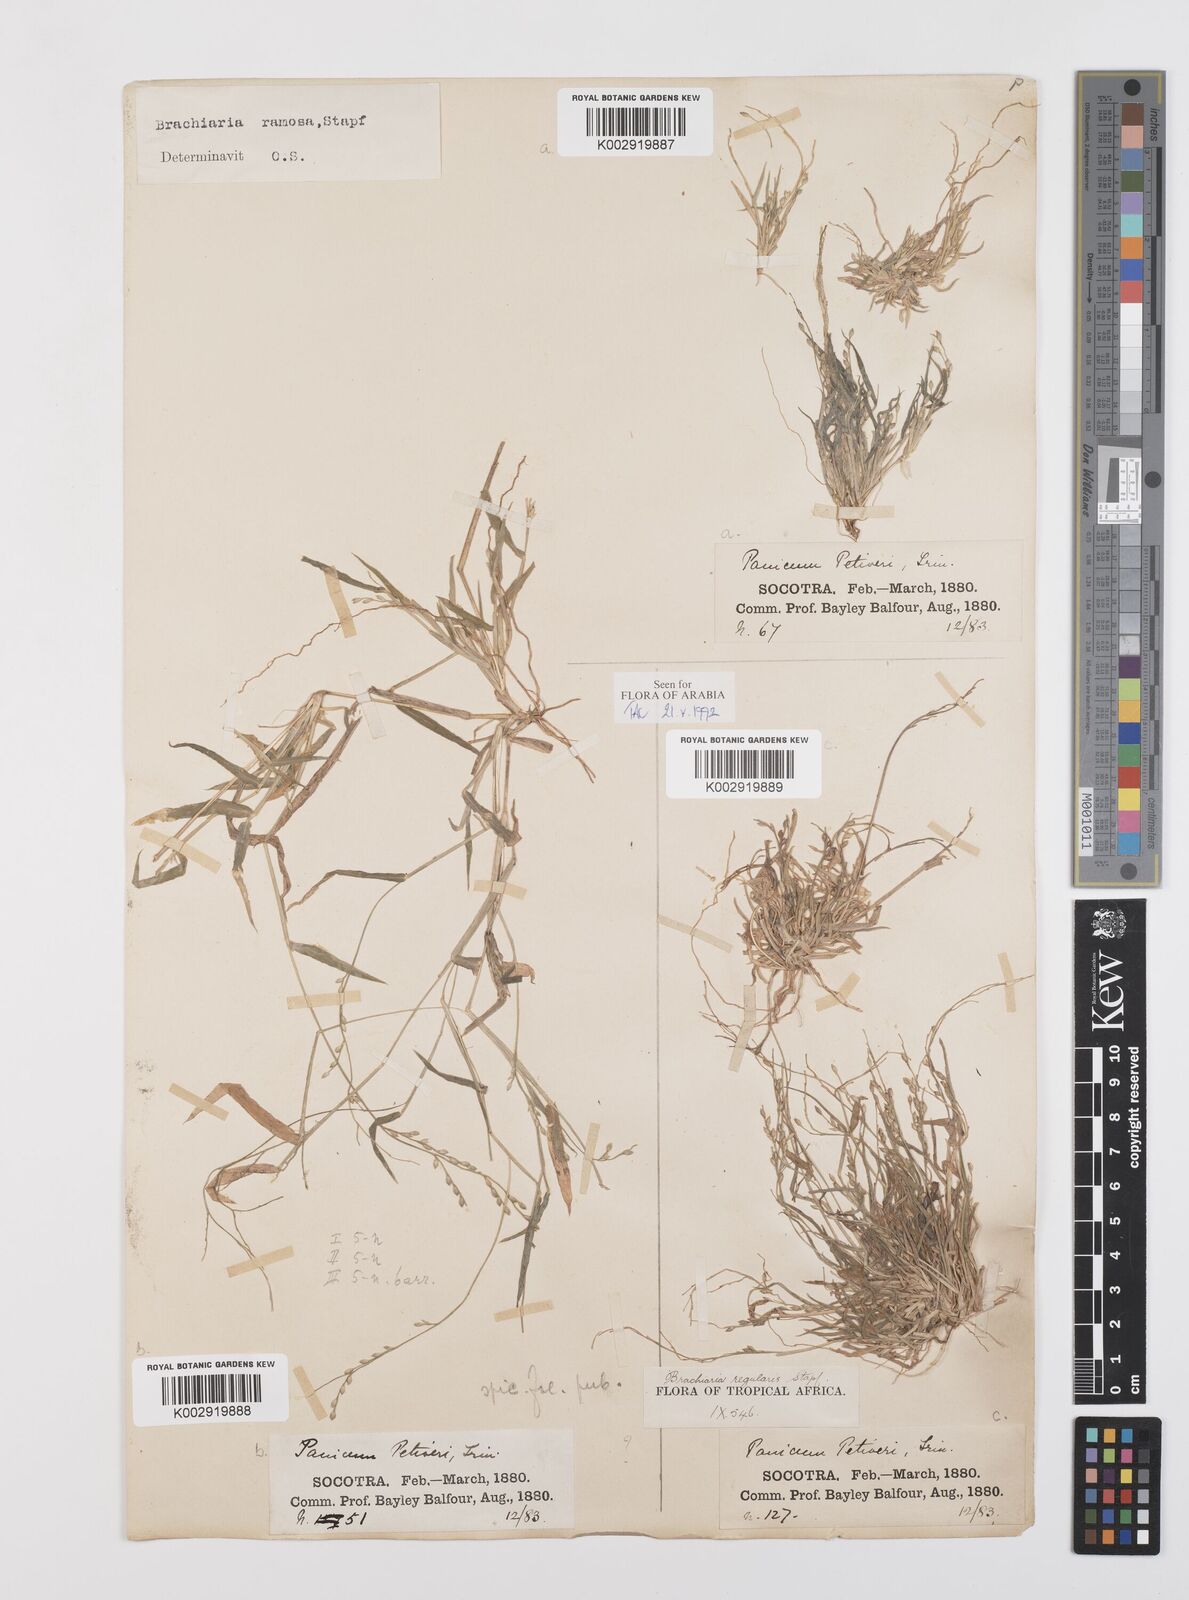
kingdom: Plantae
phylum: Tracheophyta
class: Liliopsida
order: Poales
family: Poaceae
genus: Urochloa
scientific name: Urochloa deflexa
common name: Guinea millet
